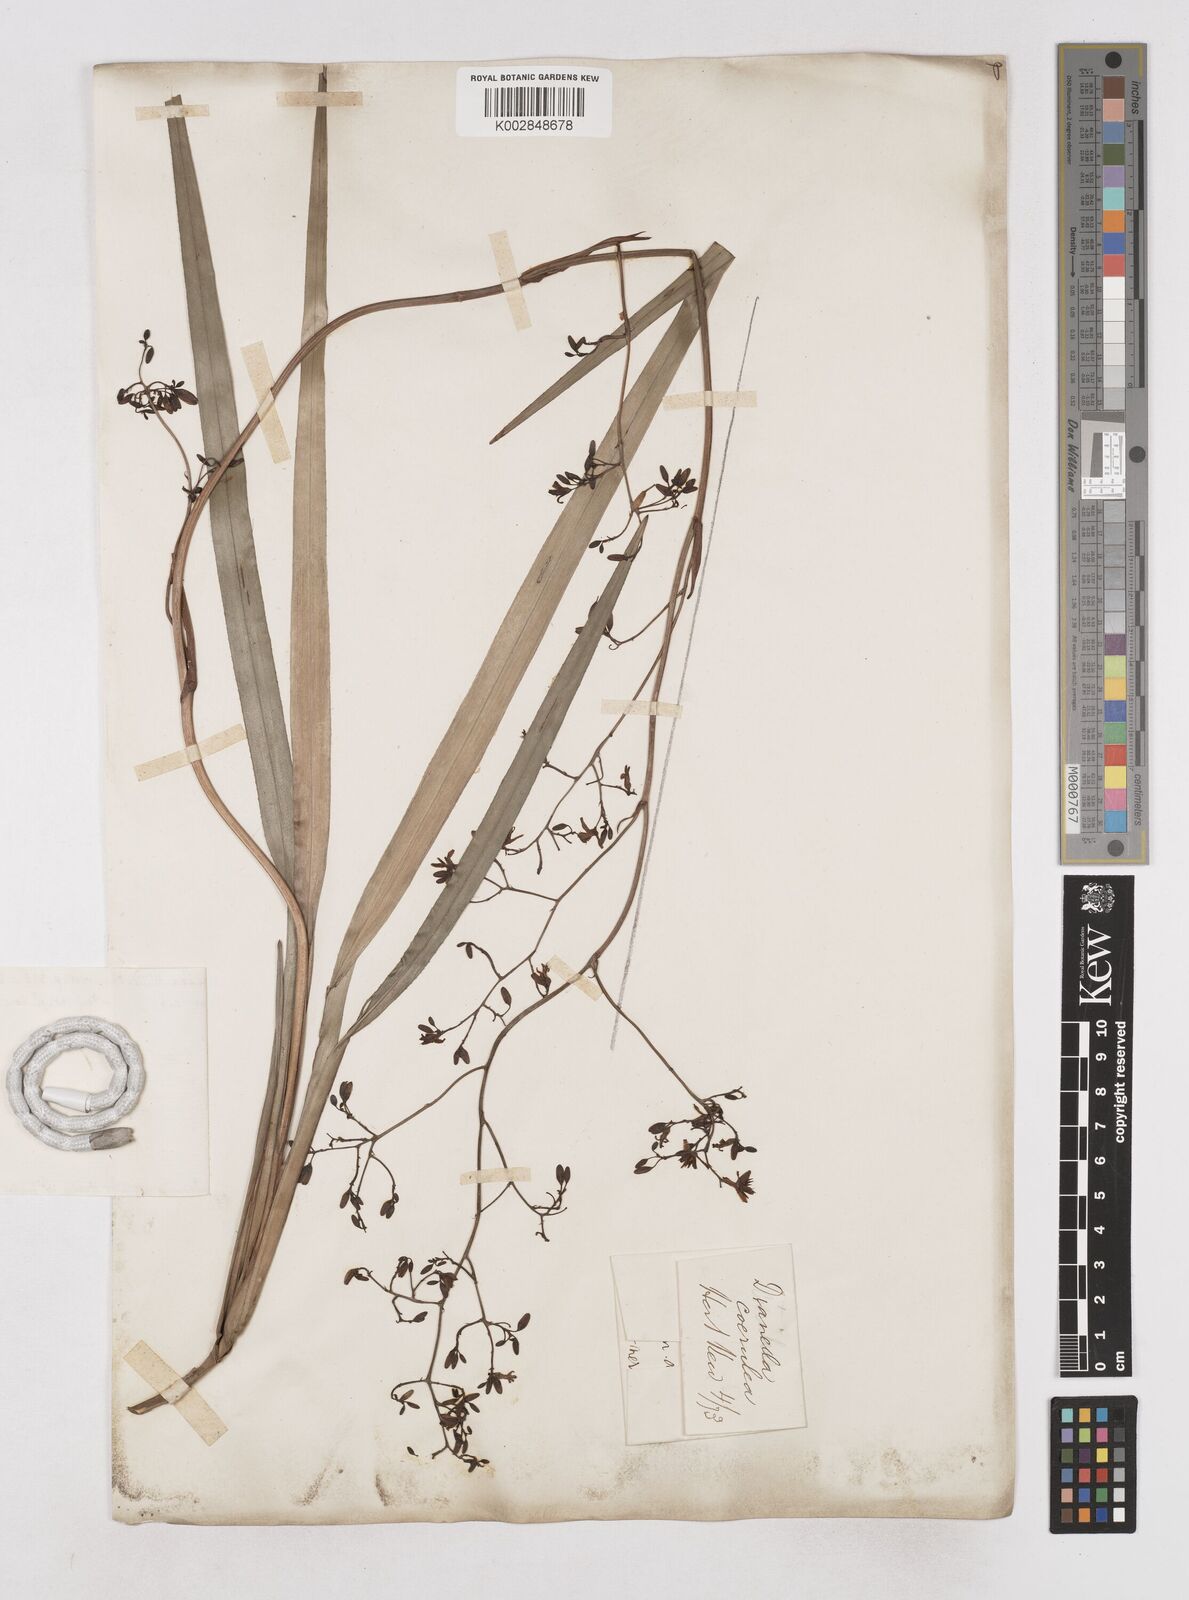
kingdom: Plantae
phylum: Tracheophyta
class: Liliopsida
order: Asparagales
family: Asphodelaceae
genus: Dianella
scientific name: Dianella caerulea
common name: Blue flax-lily
